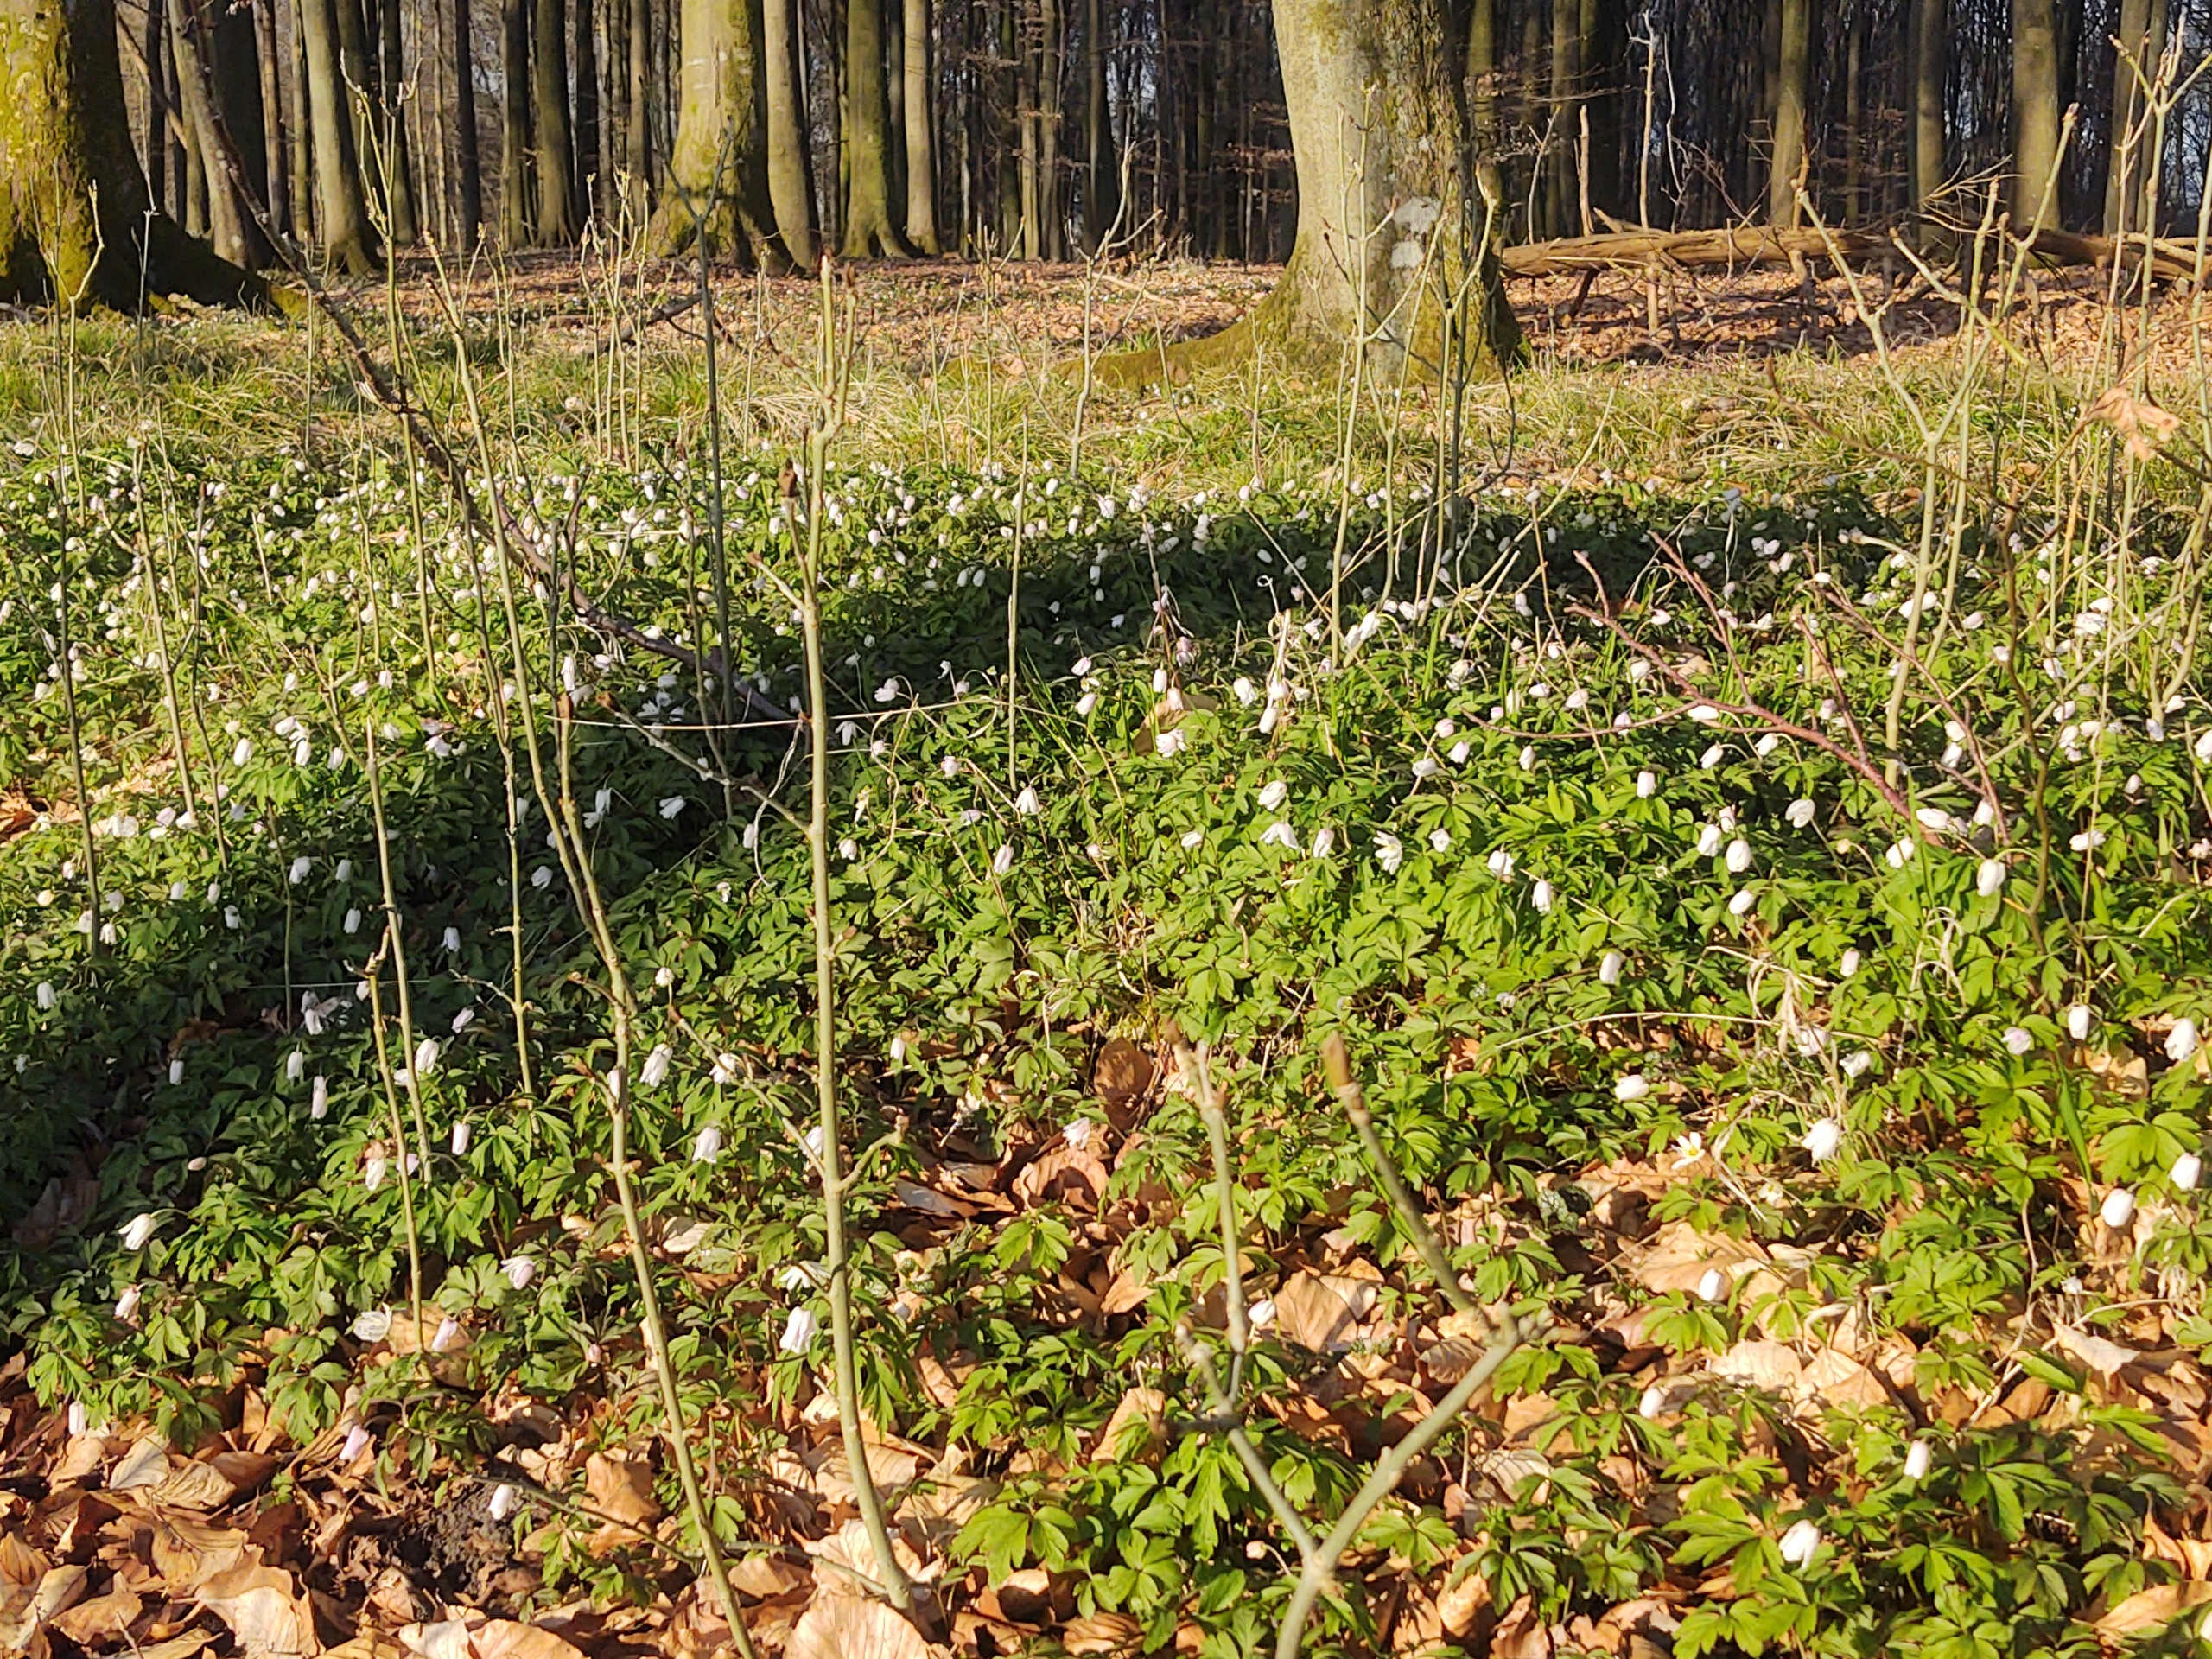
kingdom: Plantae
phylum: Tracheophyta
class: Magnoliopsida
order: Ranunculales
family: Ranunculaceae
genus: Anemone
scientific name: Anemone nemorosa
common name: Hvid anemone
